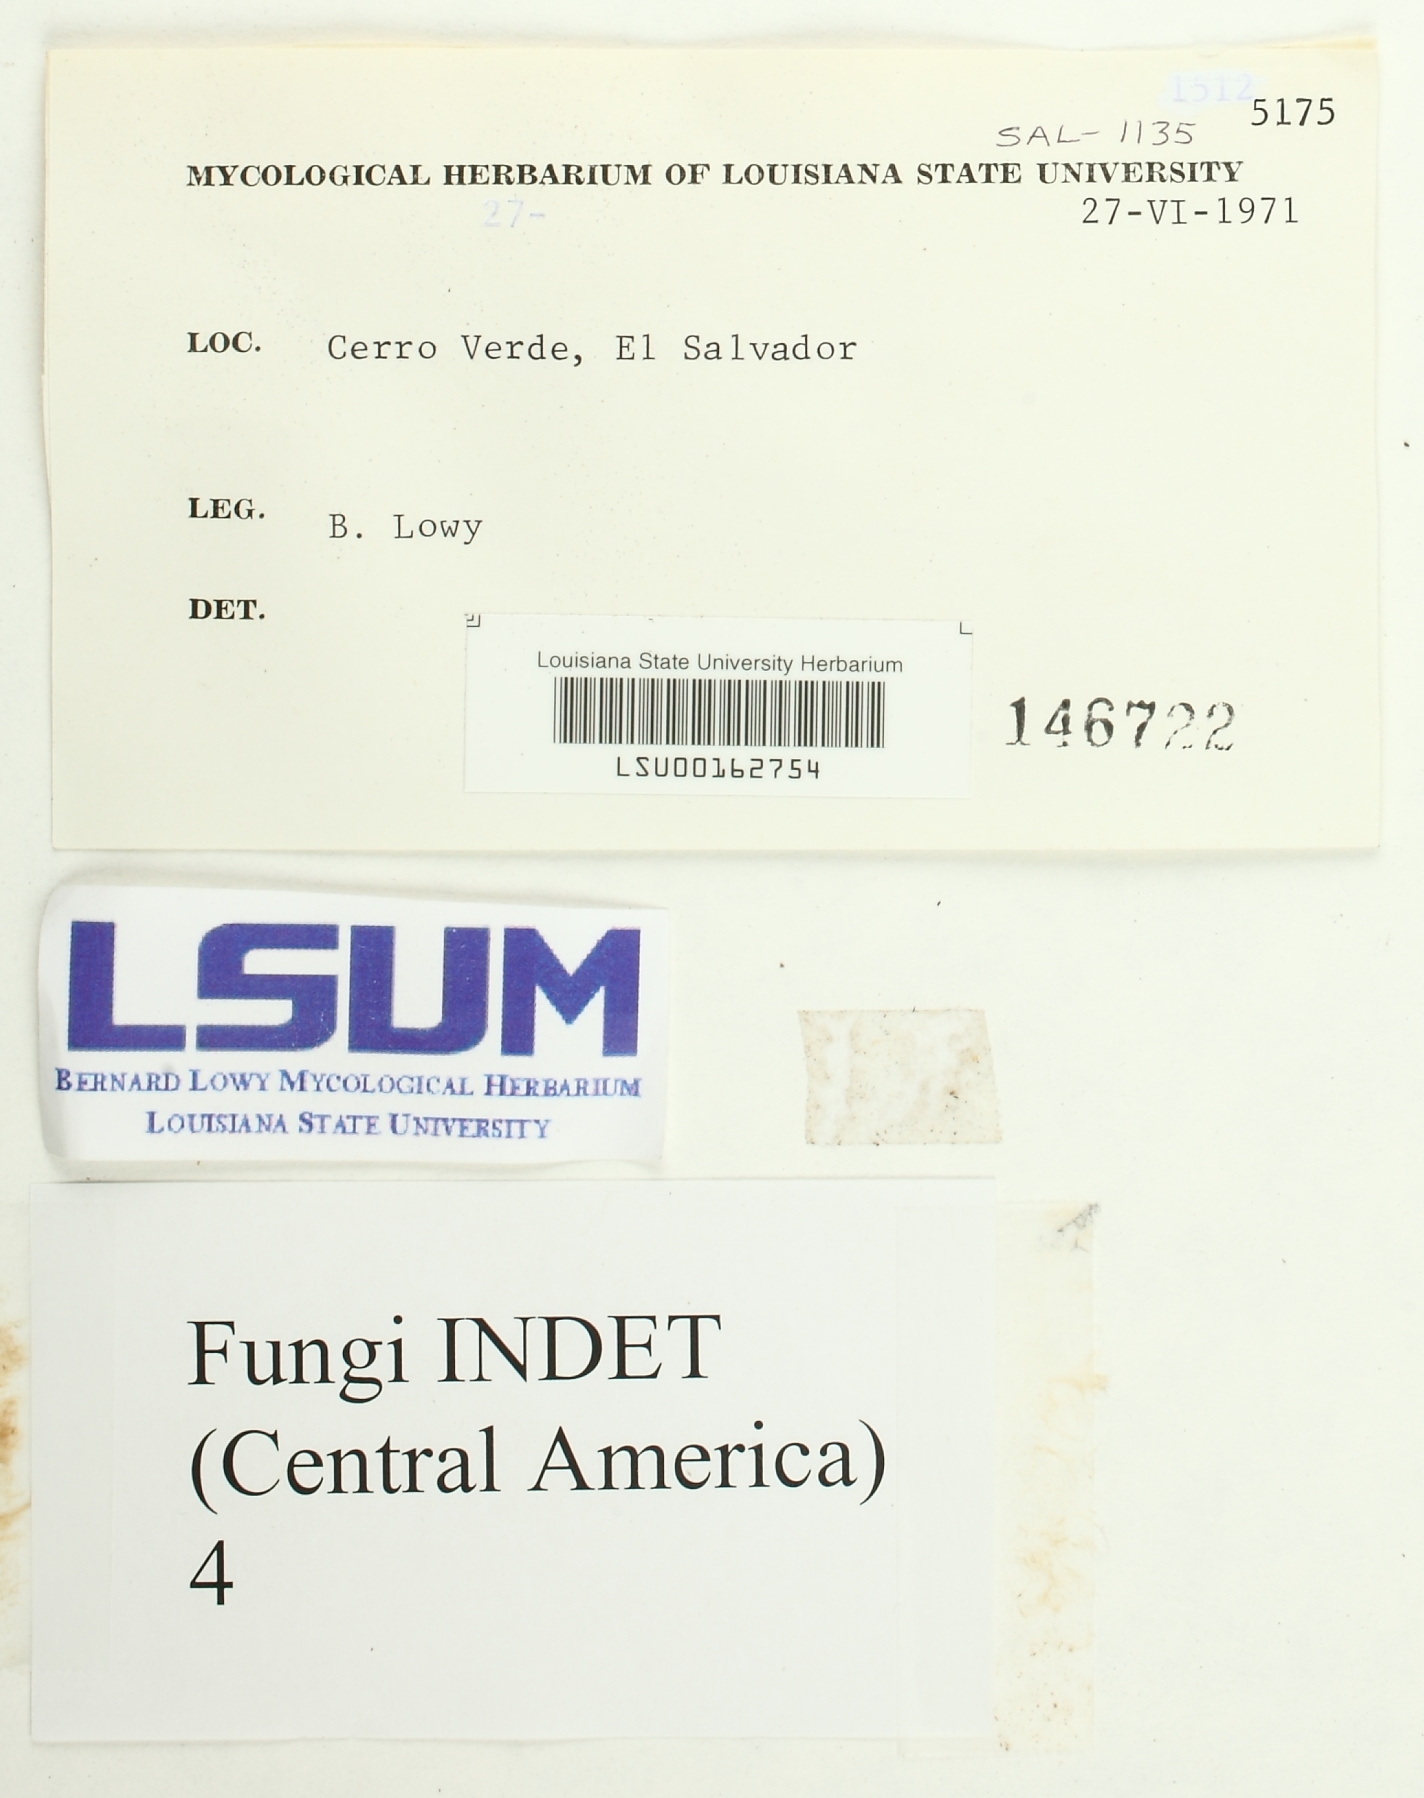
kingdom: Fungi
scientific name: Fungi
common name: Fungi
